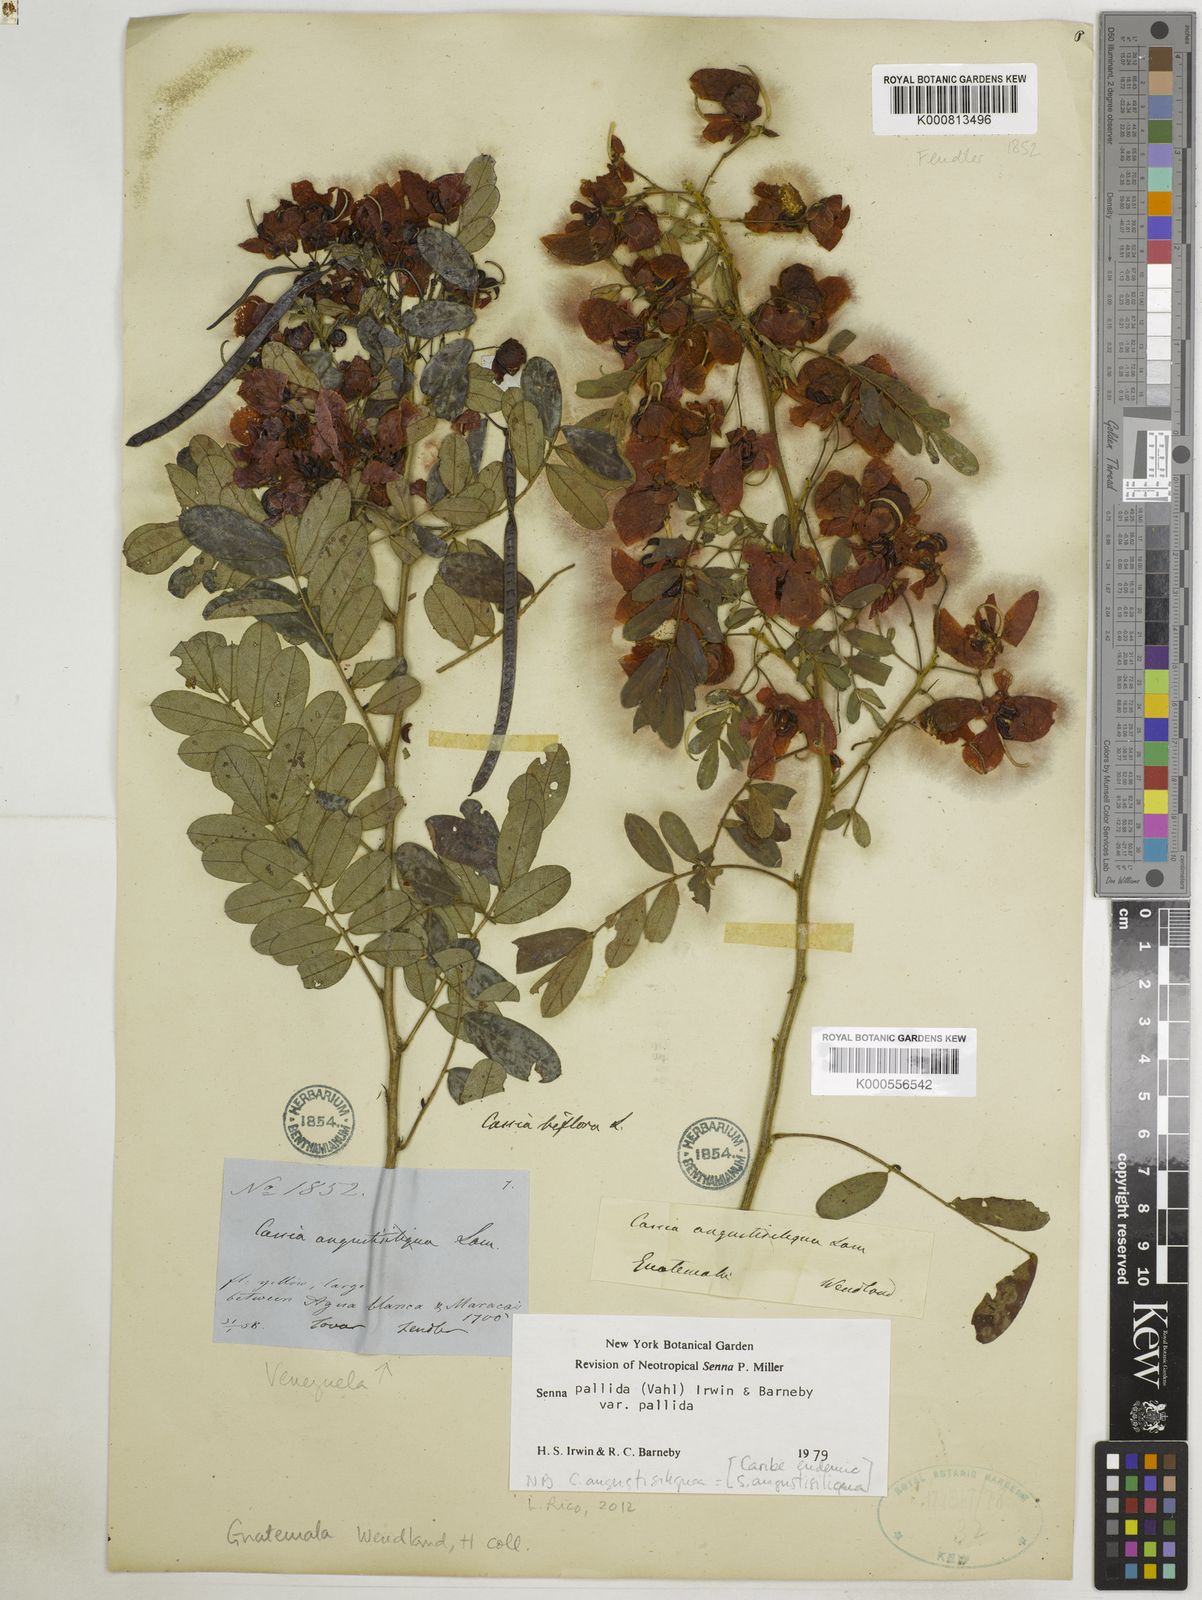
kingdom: Plantae
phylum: Tracheophyta
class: Magnoliopsida
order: Fabales
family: Fabaceae
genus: Senna
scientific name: Senna pallida
